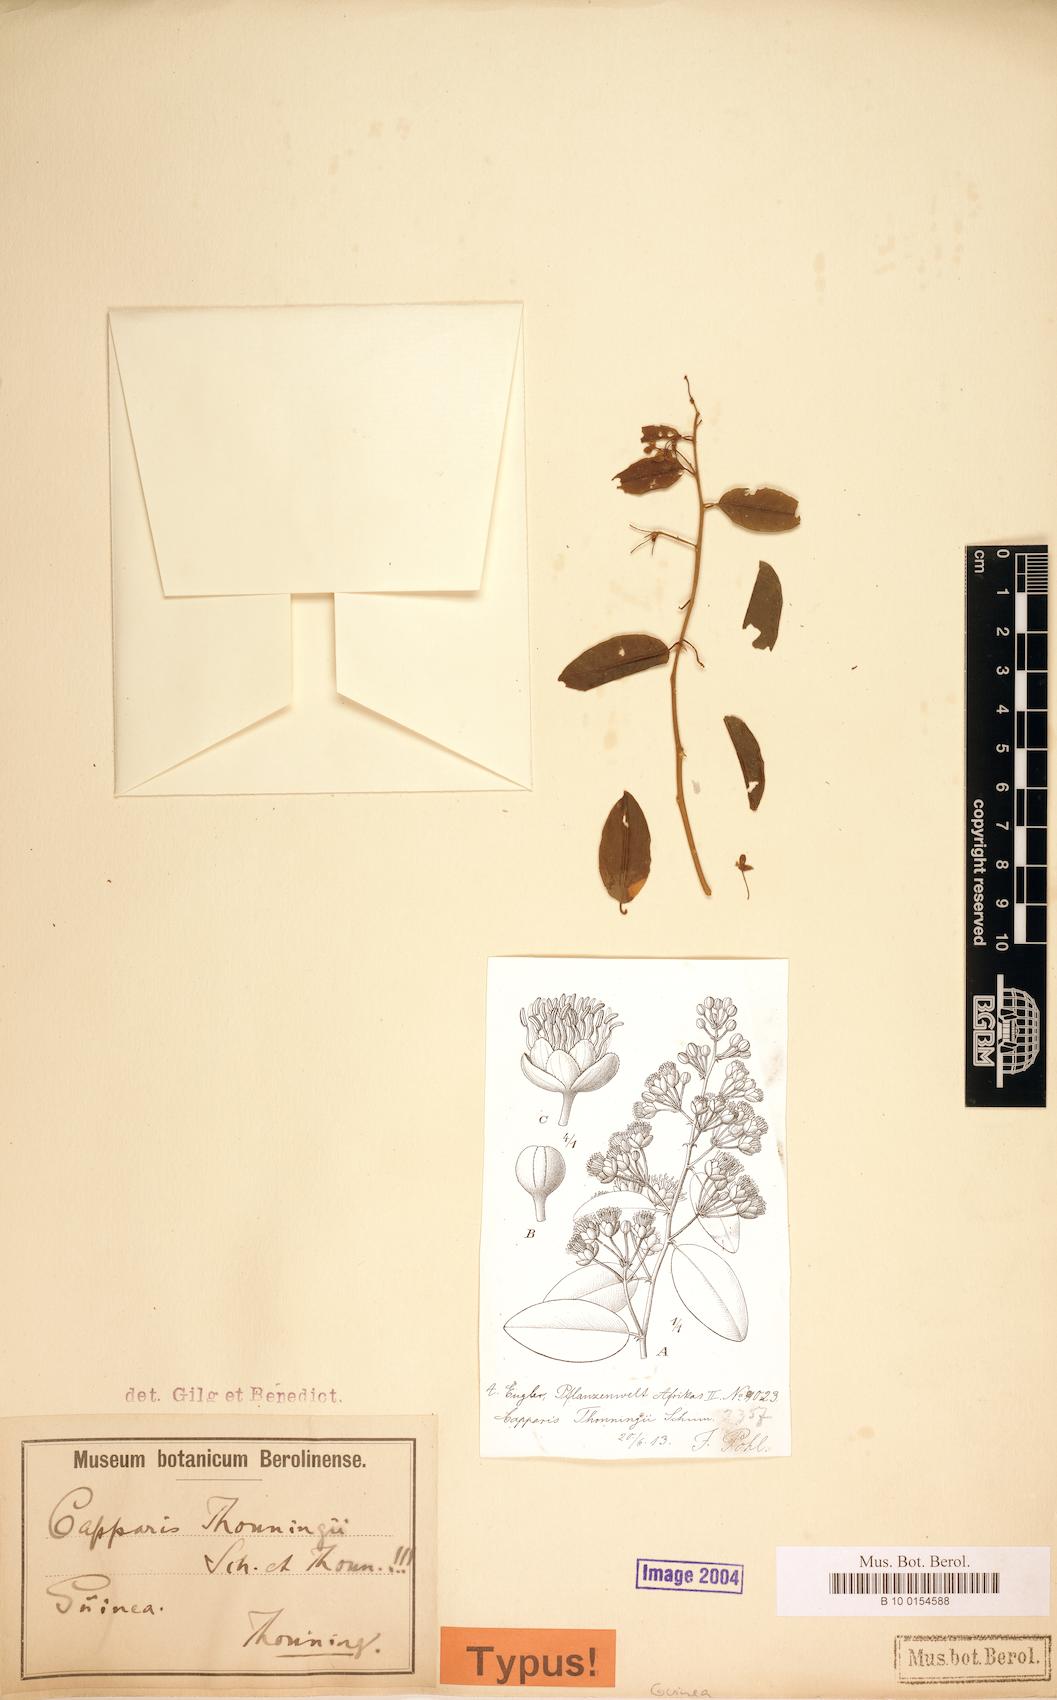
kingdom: Plantae
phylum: Tracheophyta
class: Magnoliopsida
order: Brassicales
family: Capparaceae
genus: Capparis
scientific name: Capparis brassii
